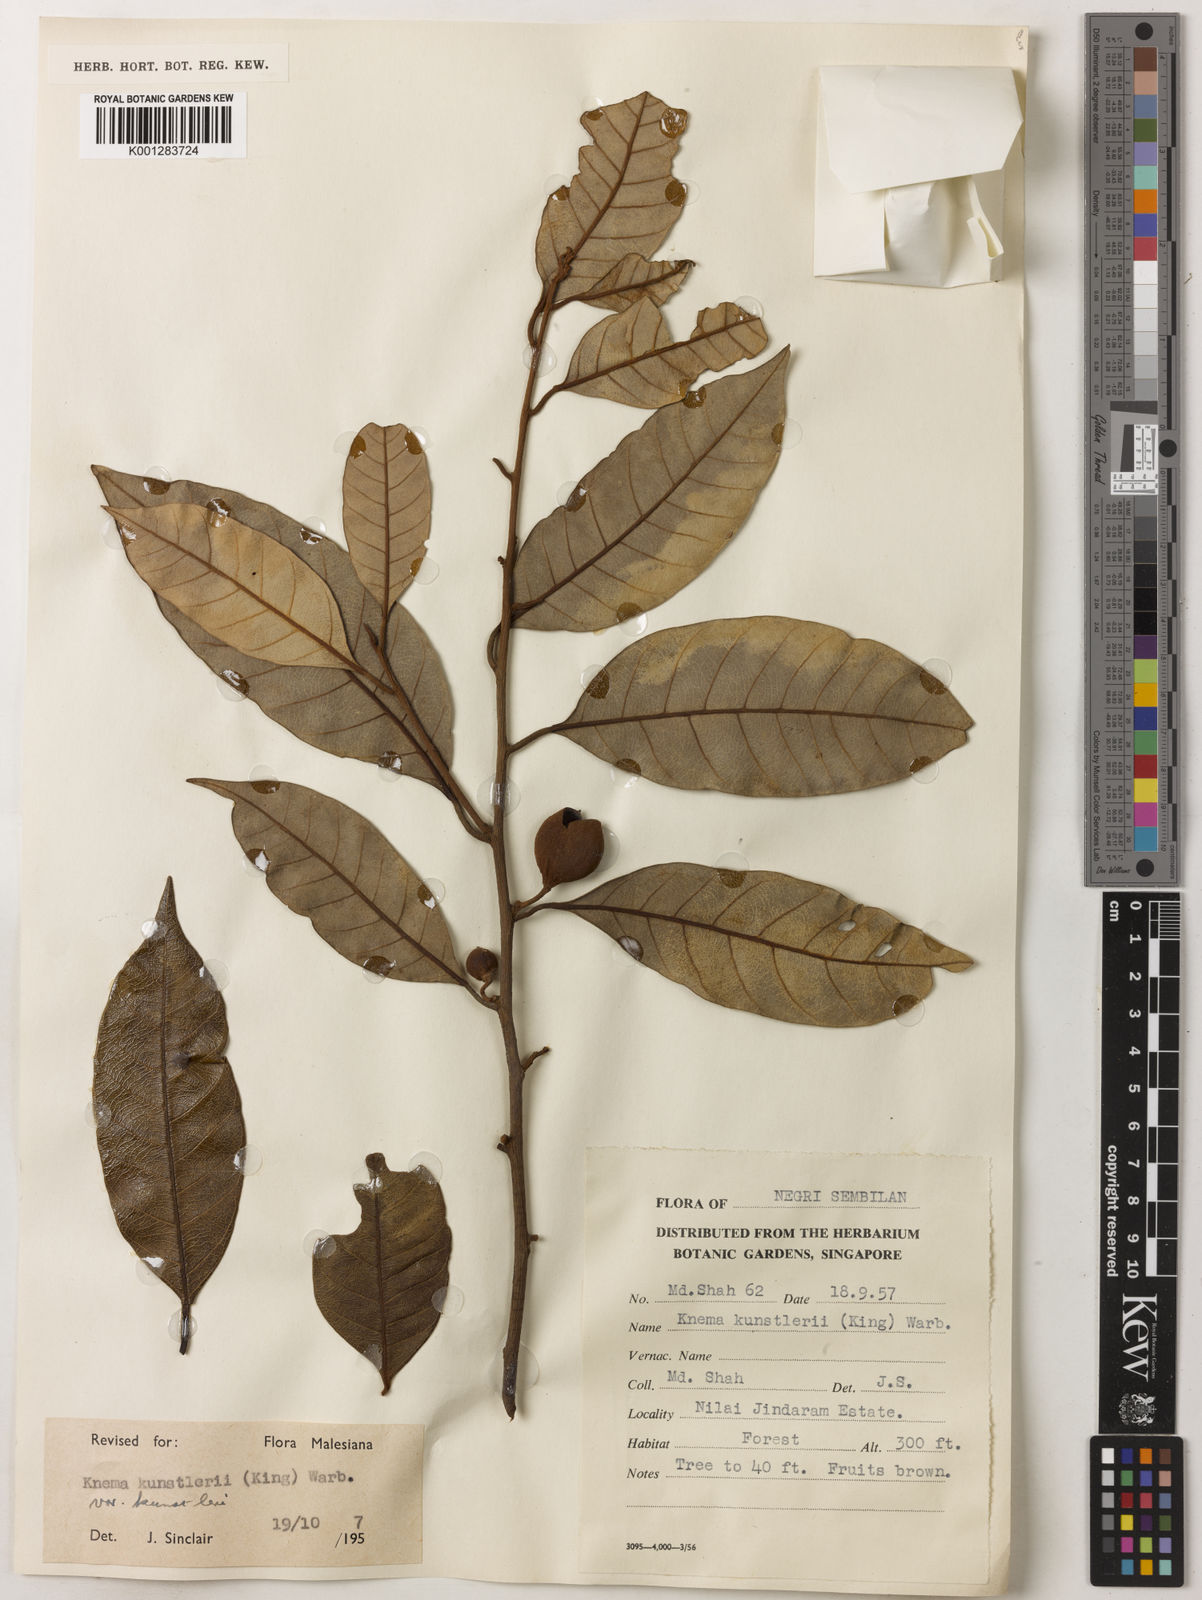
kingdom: Plantae
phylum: Tracheophyta
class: Magnoliopsida
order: Magnoliales
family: Myristicaceae
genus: Knema
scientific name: Knema kunstleri
